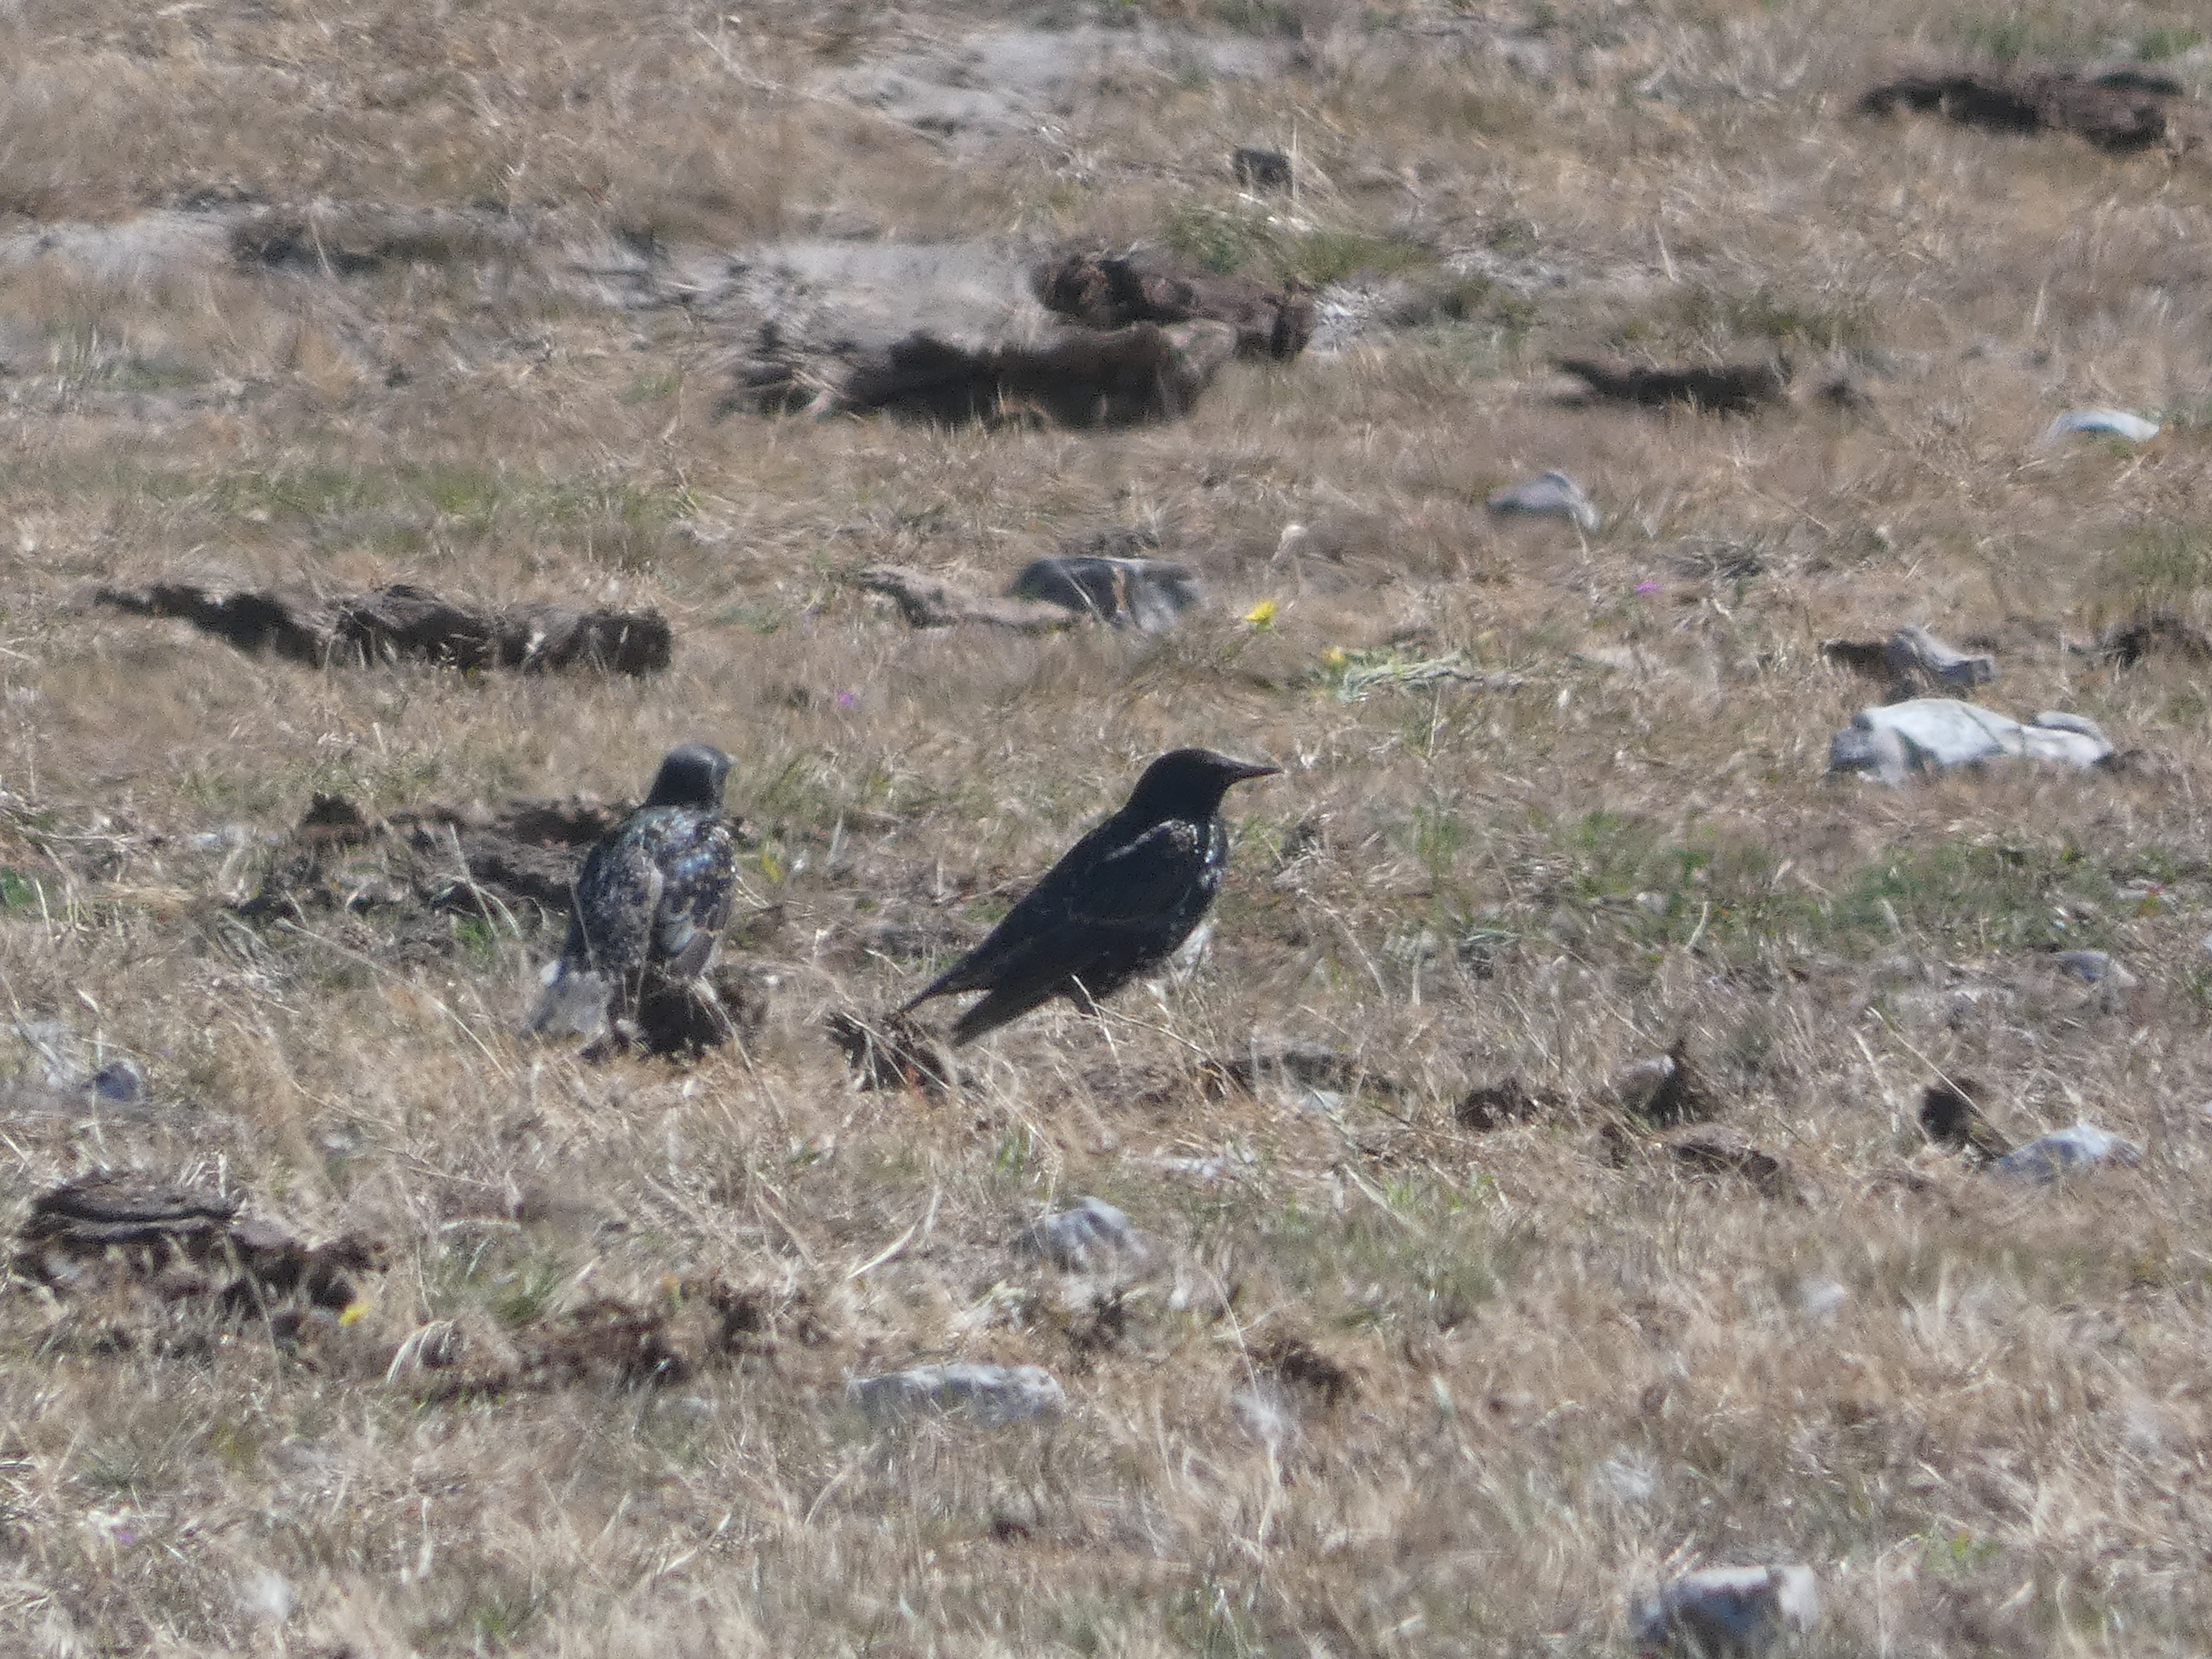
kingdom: Animalia
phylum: Chordata
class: Aves
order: Passeriformes
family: Sturnidae
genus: Sturnus
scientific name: Sturnus vulgaris
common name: Stær
